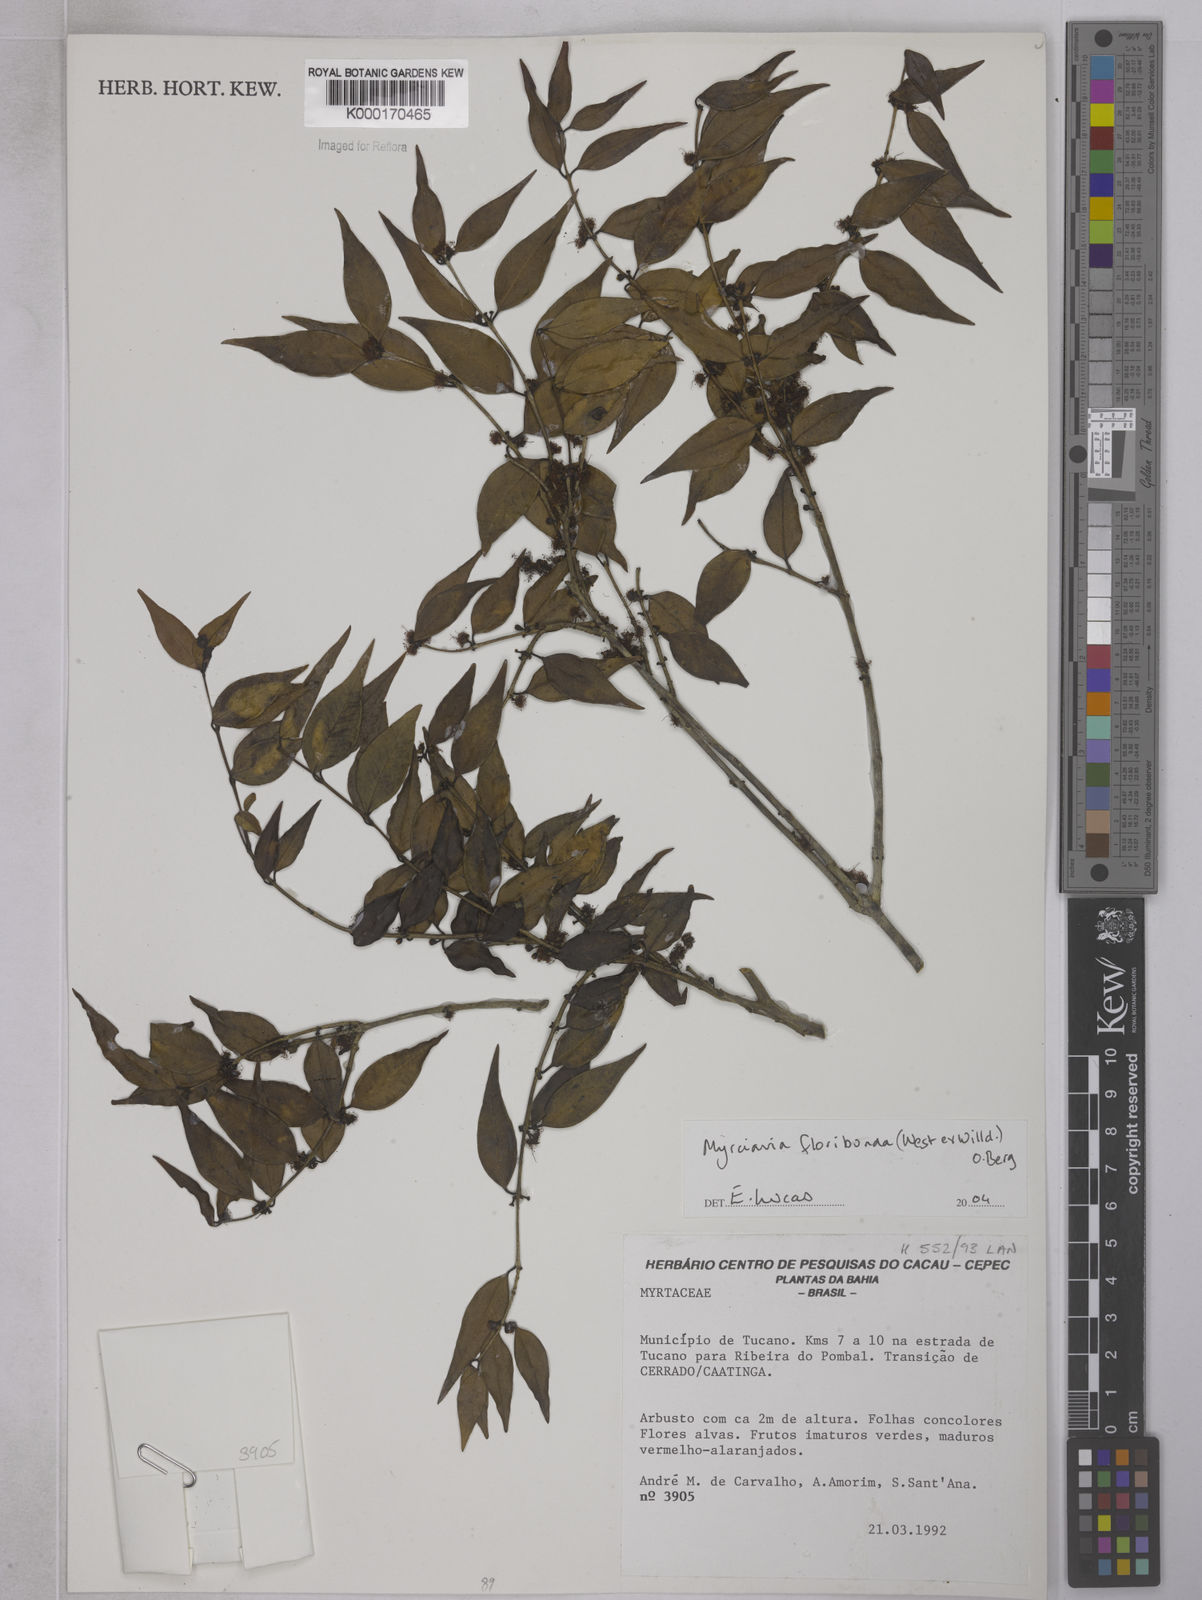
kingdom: Plantae
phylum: Tracheophyta
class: Magnoliopsida
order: Myrtales
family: Myrtaceae
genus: Myrciaria
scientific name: Myrciaria floribunda
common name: Guavaberry
